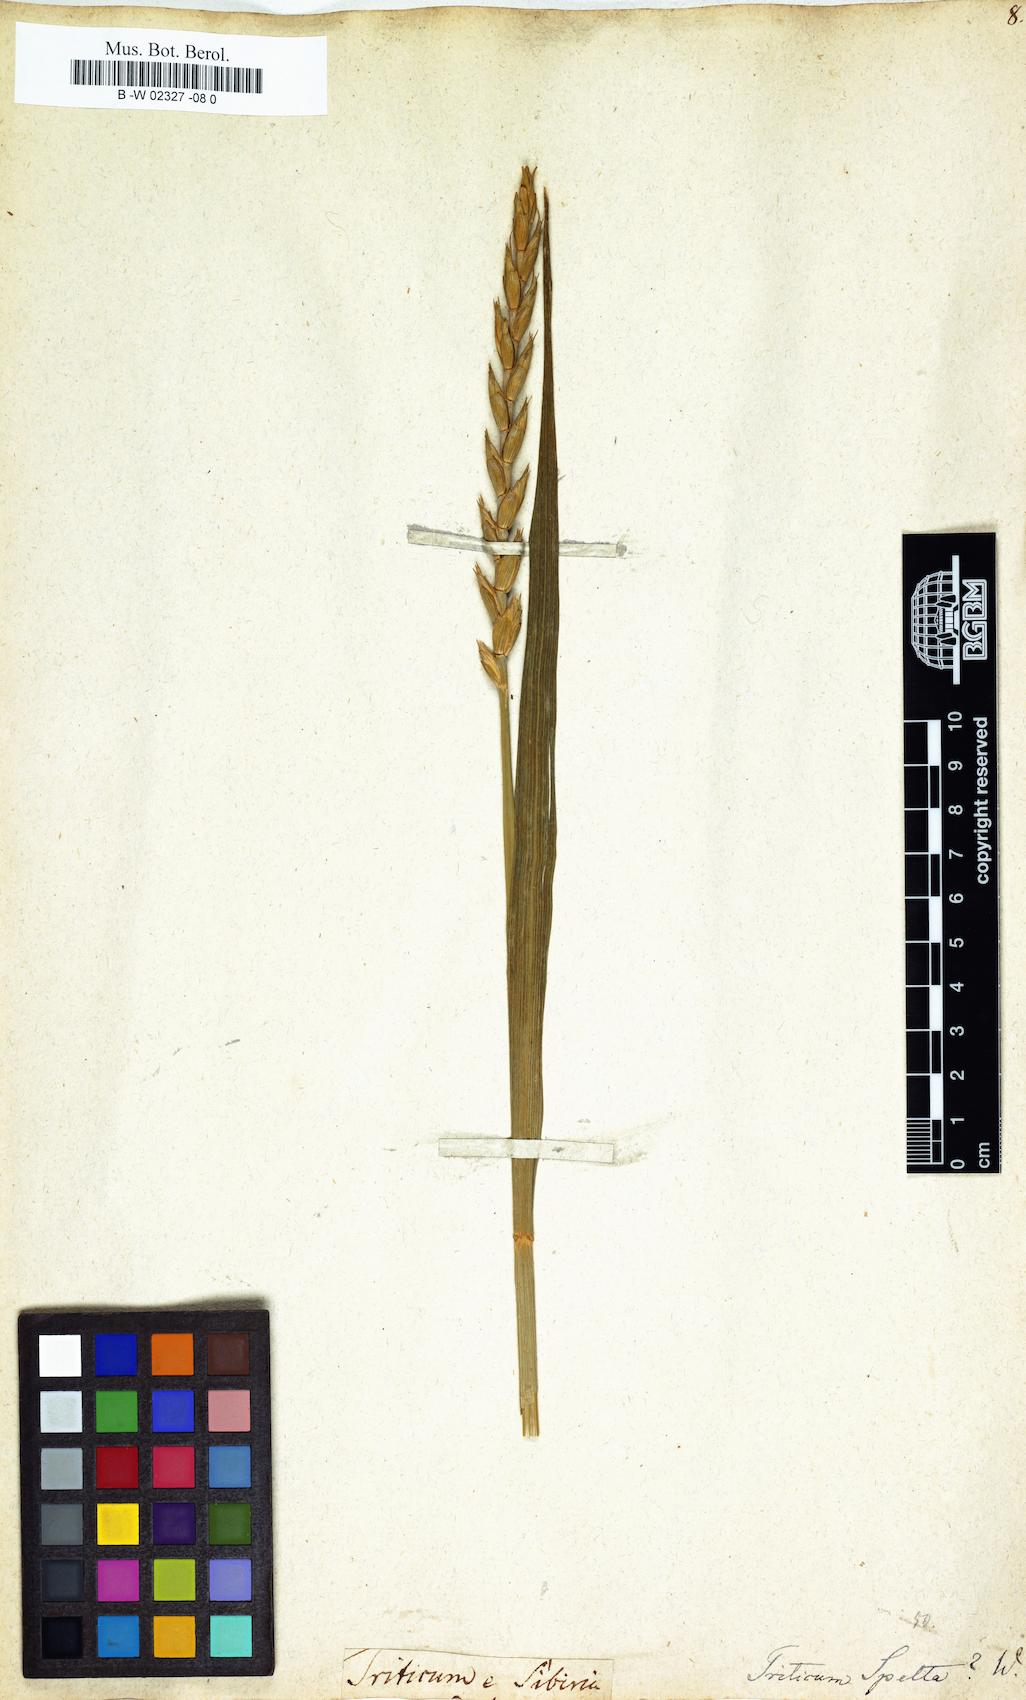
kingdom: Plantae
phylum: Tracheophyta
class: Liliopsida
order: Poales
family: Poaceae
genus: Triticum
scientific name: Triticum aestivum
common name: Common wheat
